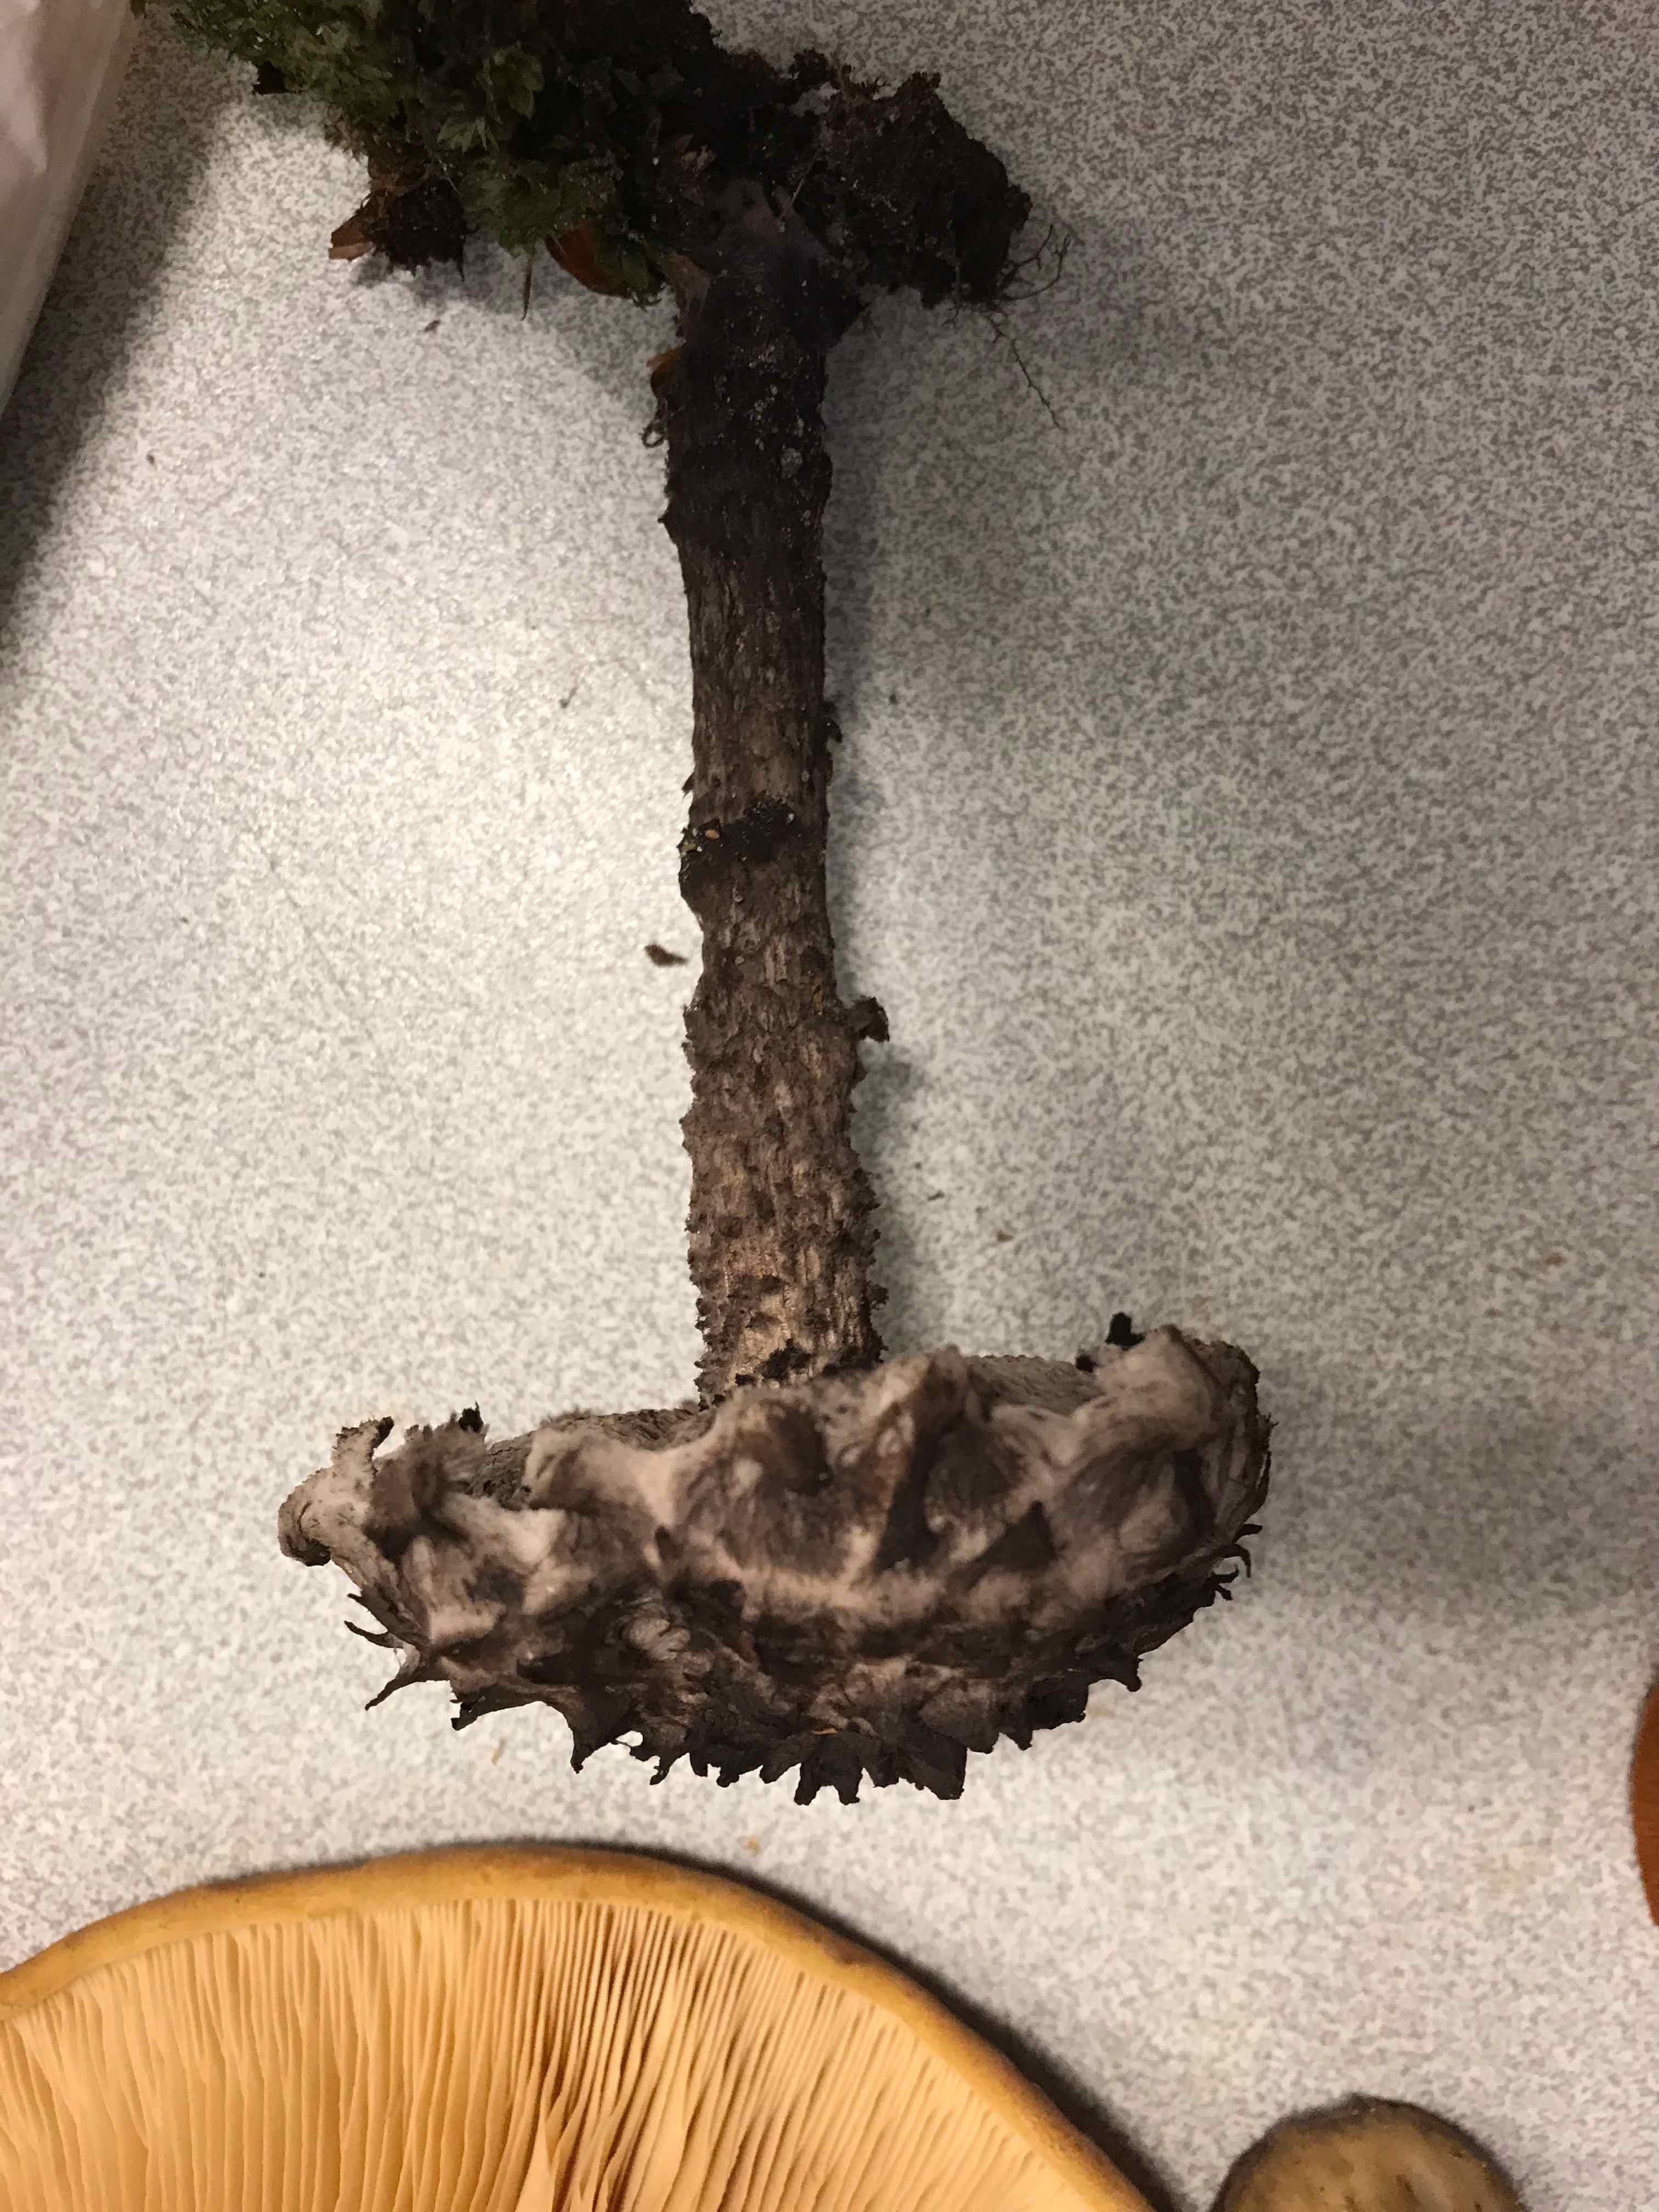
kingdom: Fungi
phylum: Basidiomycota
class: Agaricomycetes
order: Boletales
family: Boletaceae
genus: Strobilomyces
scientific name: Strobilomyces strobilaceus
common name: koglerørhat
